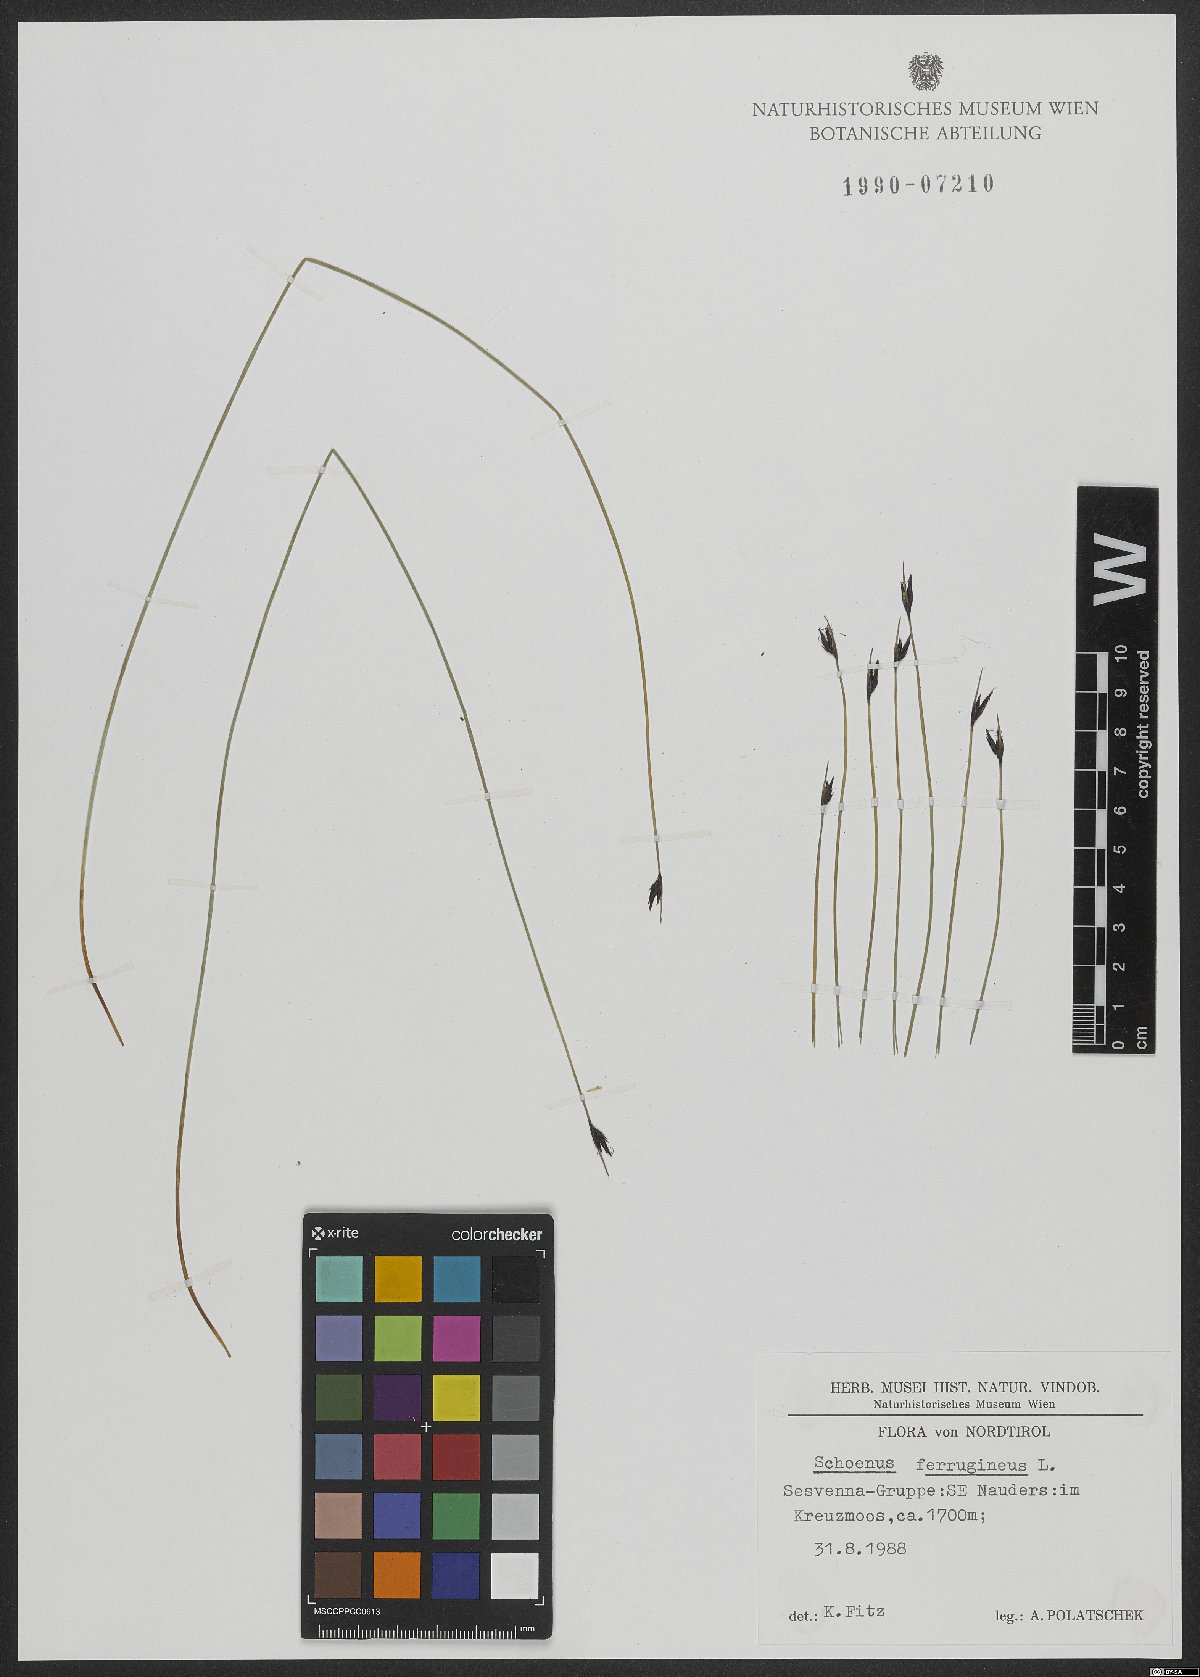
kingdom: Plantae
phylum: Tracheophyta
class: Liliopsida
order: Poales
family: Cyperaceae
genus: Schoenus
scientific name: Schoenus ferrugineus
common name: Brown bog-rush
